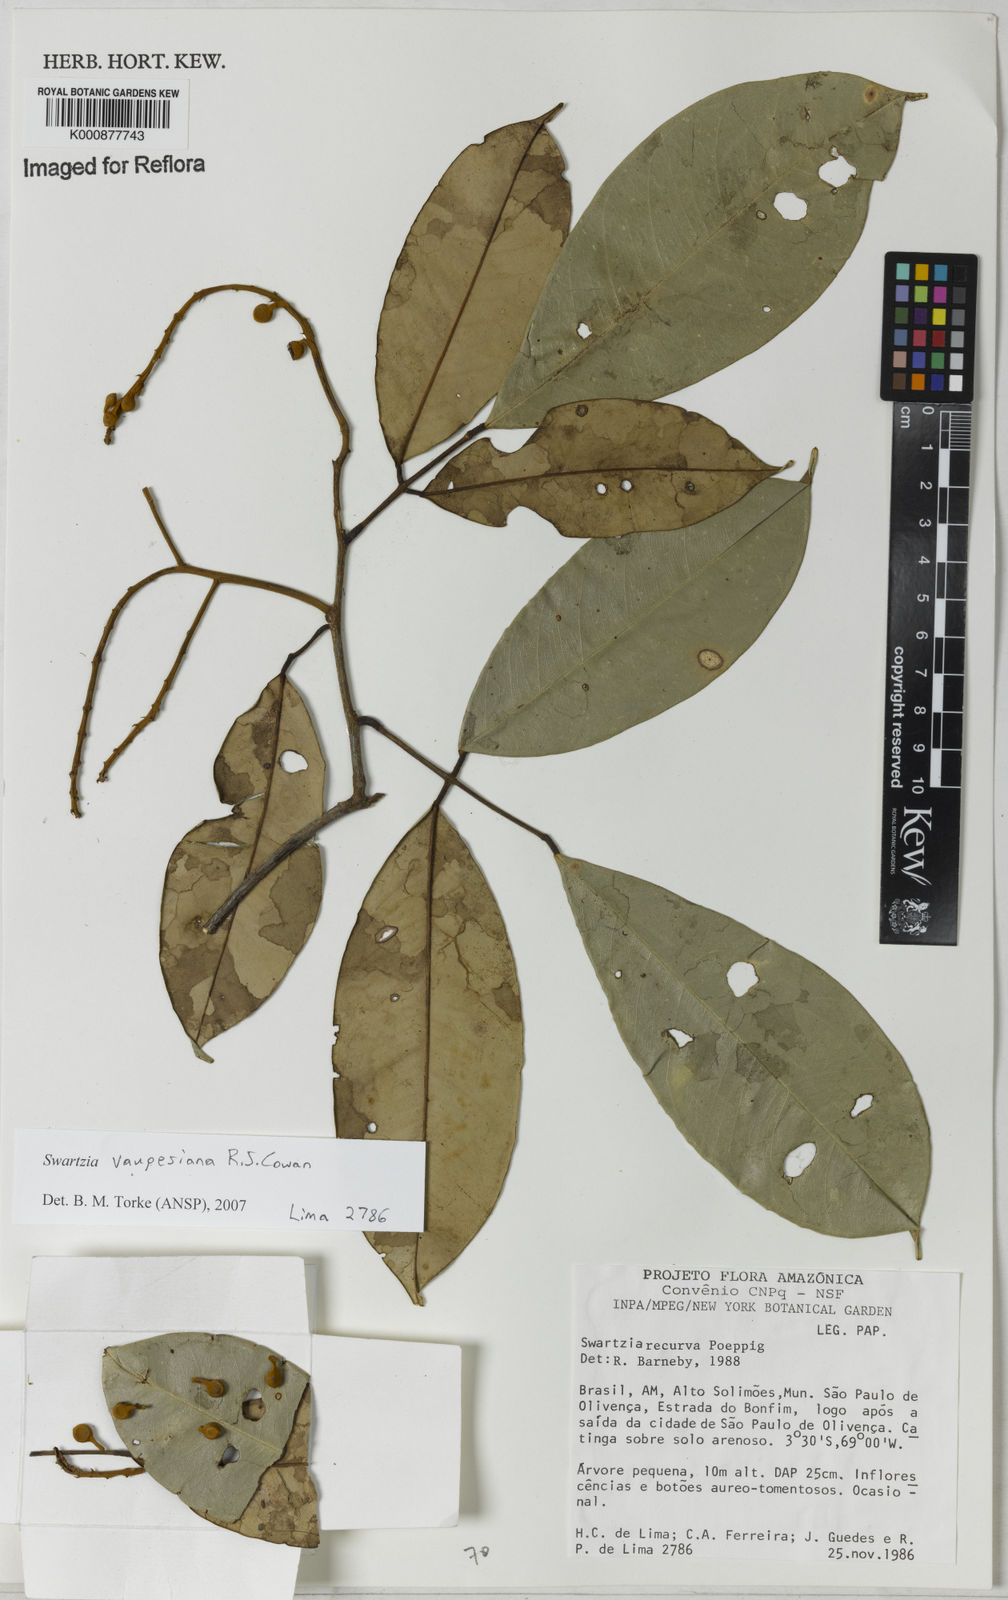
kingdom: Plantae
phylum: Tracheophyta
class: Magnoliopsida
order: Fabales
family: Fabaceae
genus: Swartzia
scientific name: Swartzia vaupesiana
